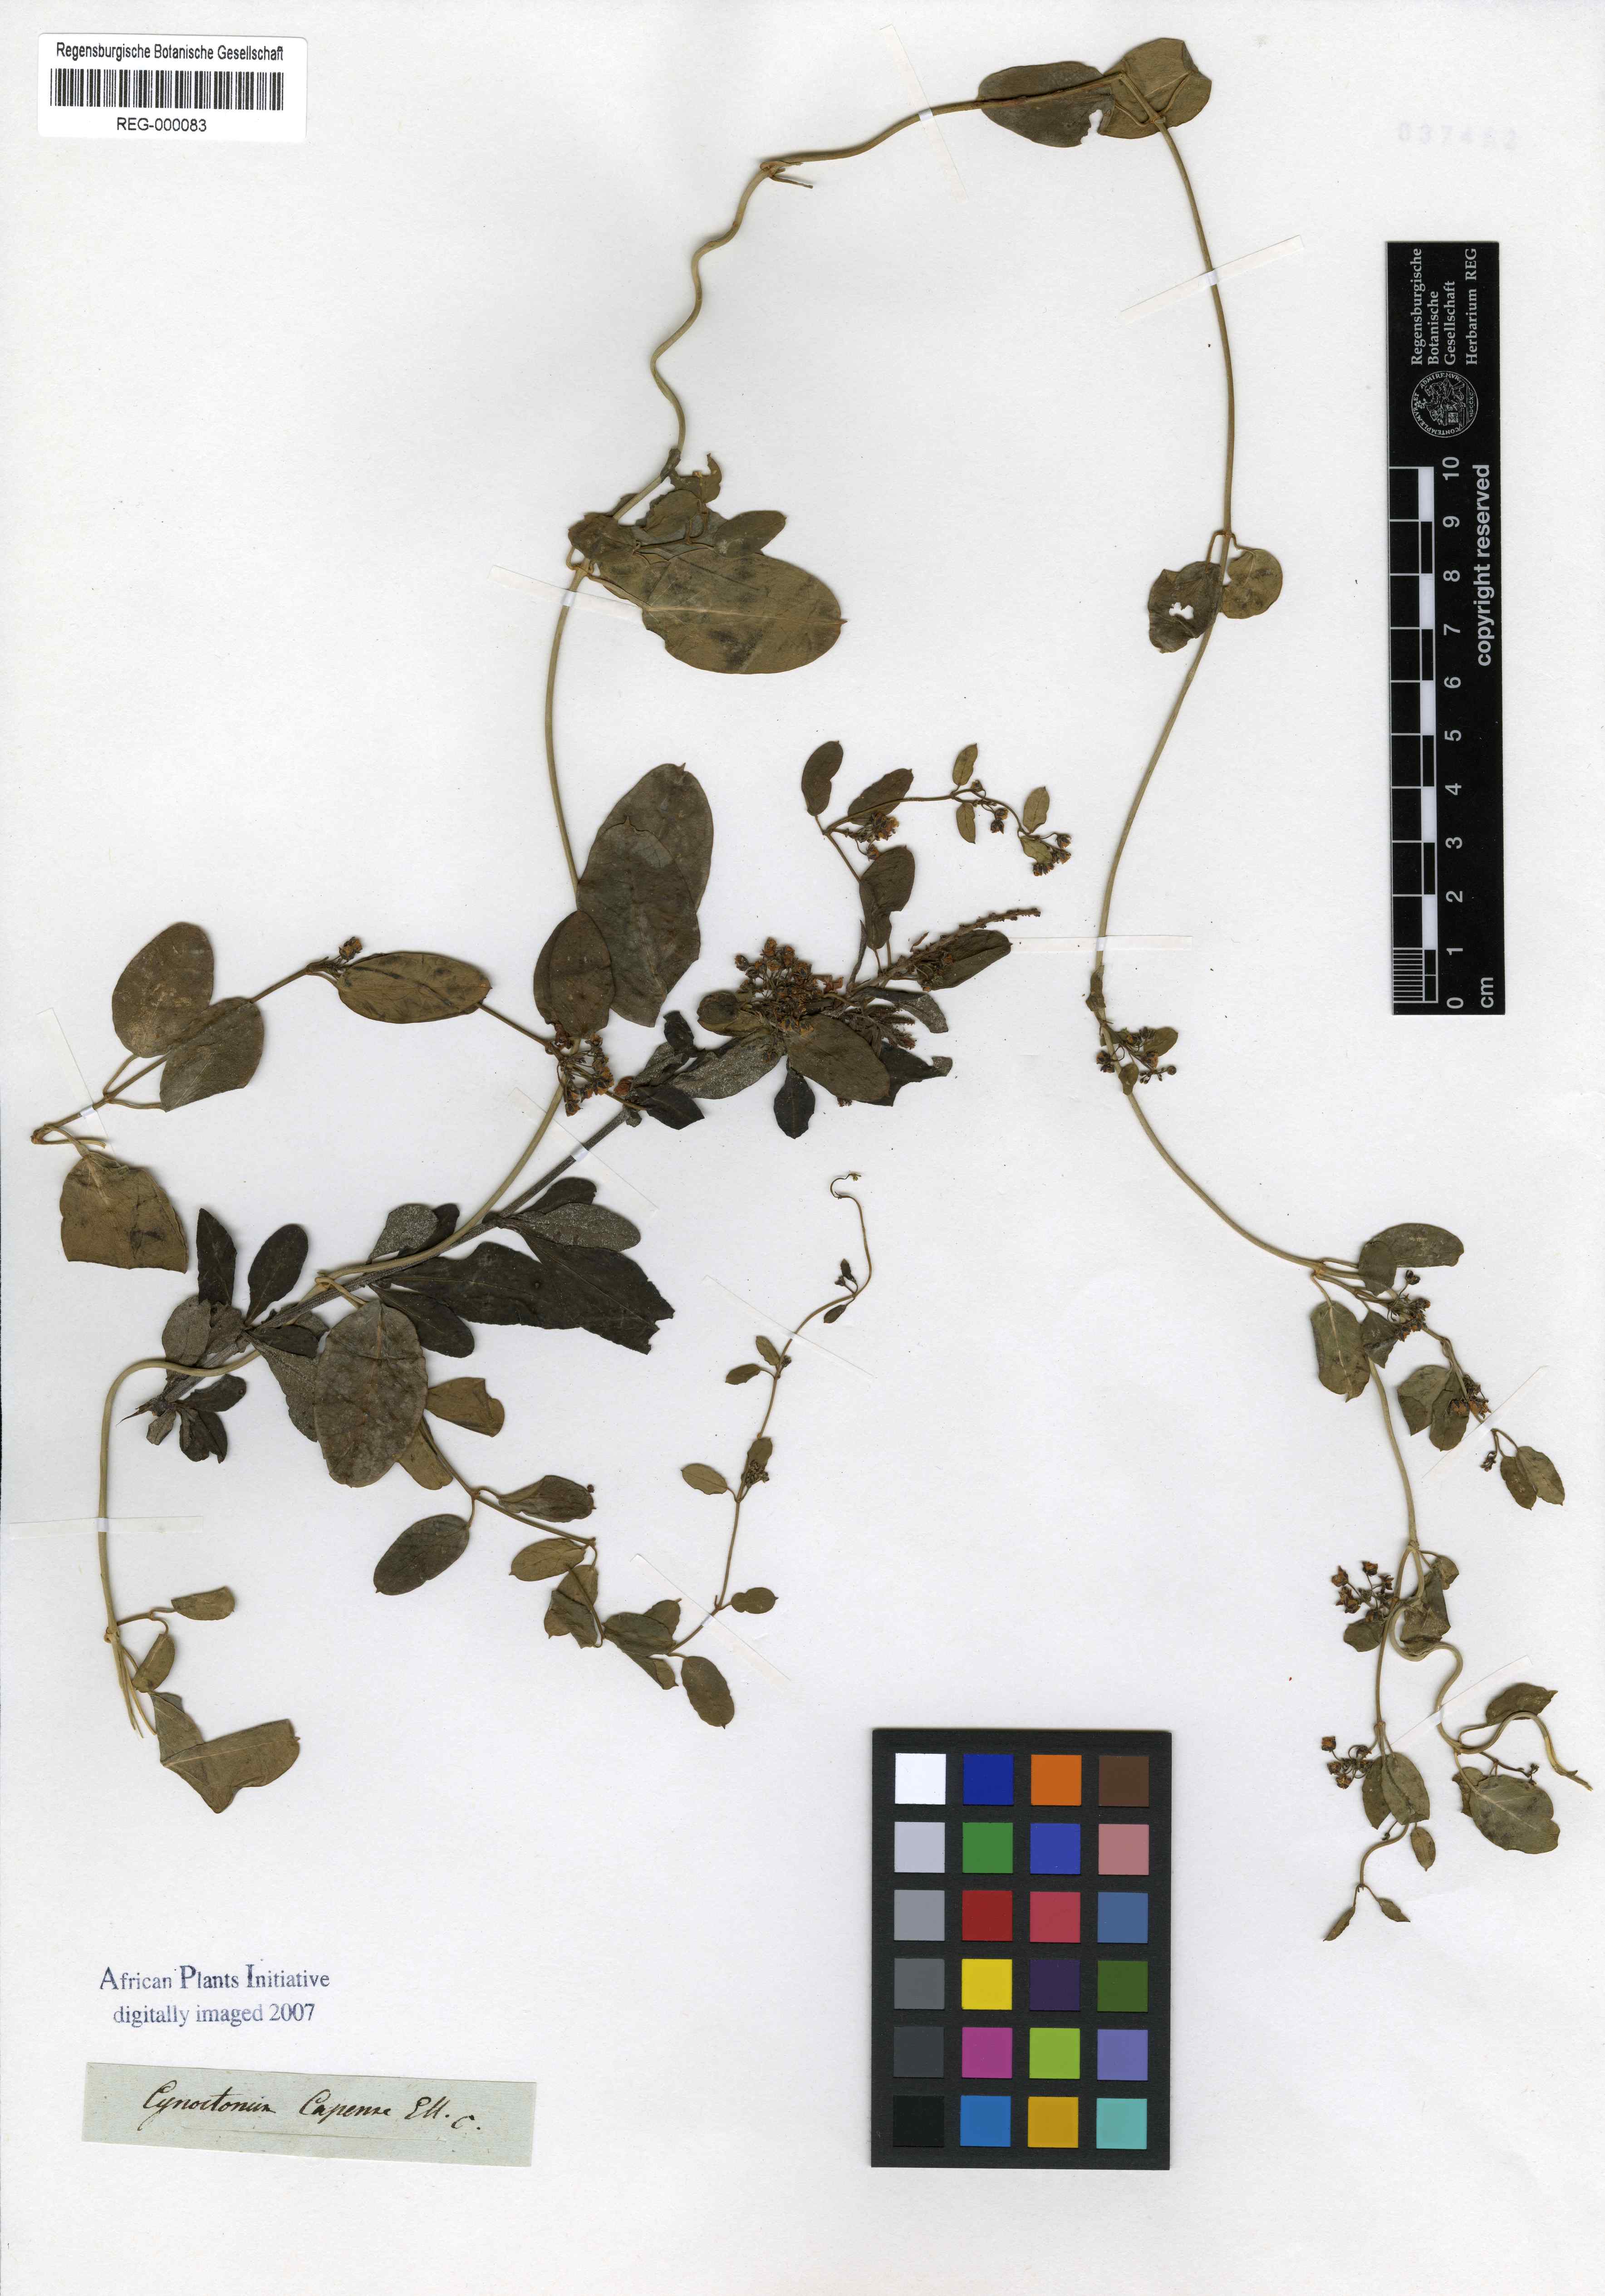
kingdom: Plantae
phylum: Tracheophyta
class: Magnoliopsida
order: Gentianales
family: Apocynaceae
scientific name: Apocynaceae
